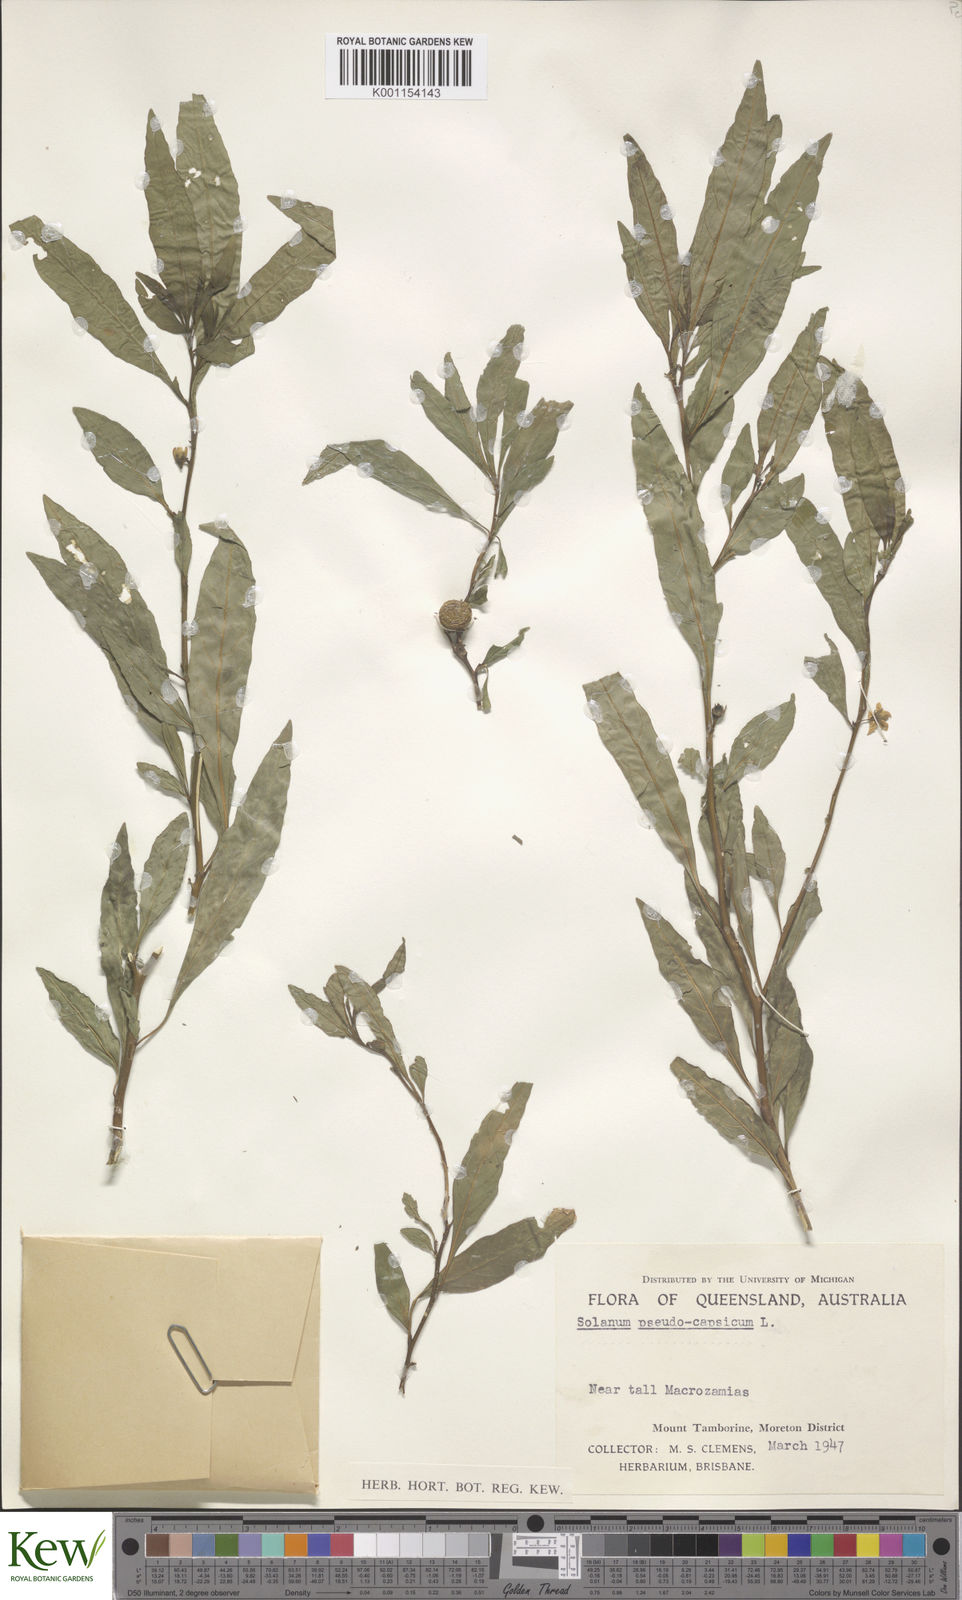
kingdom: Plantae
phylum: Tracheophyta
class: Magnoliopsida
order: Solanales
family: Solanaceae
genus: Solanum
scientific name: Solanum pseudocapsicum
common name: Jerusalem cherry
